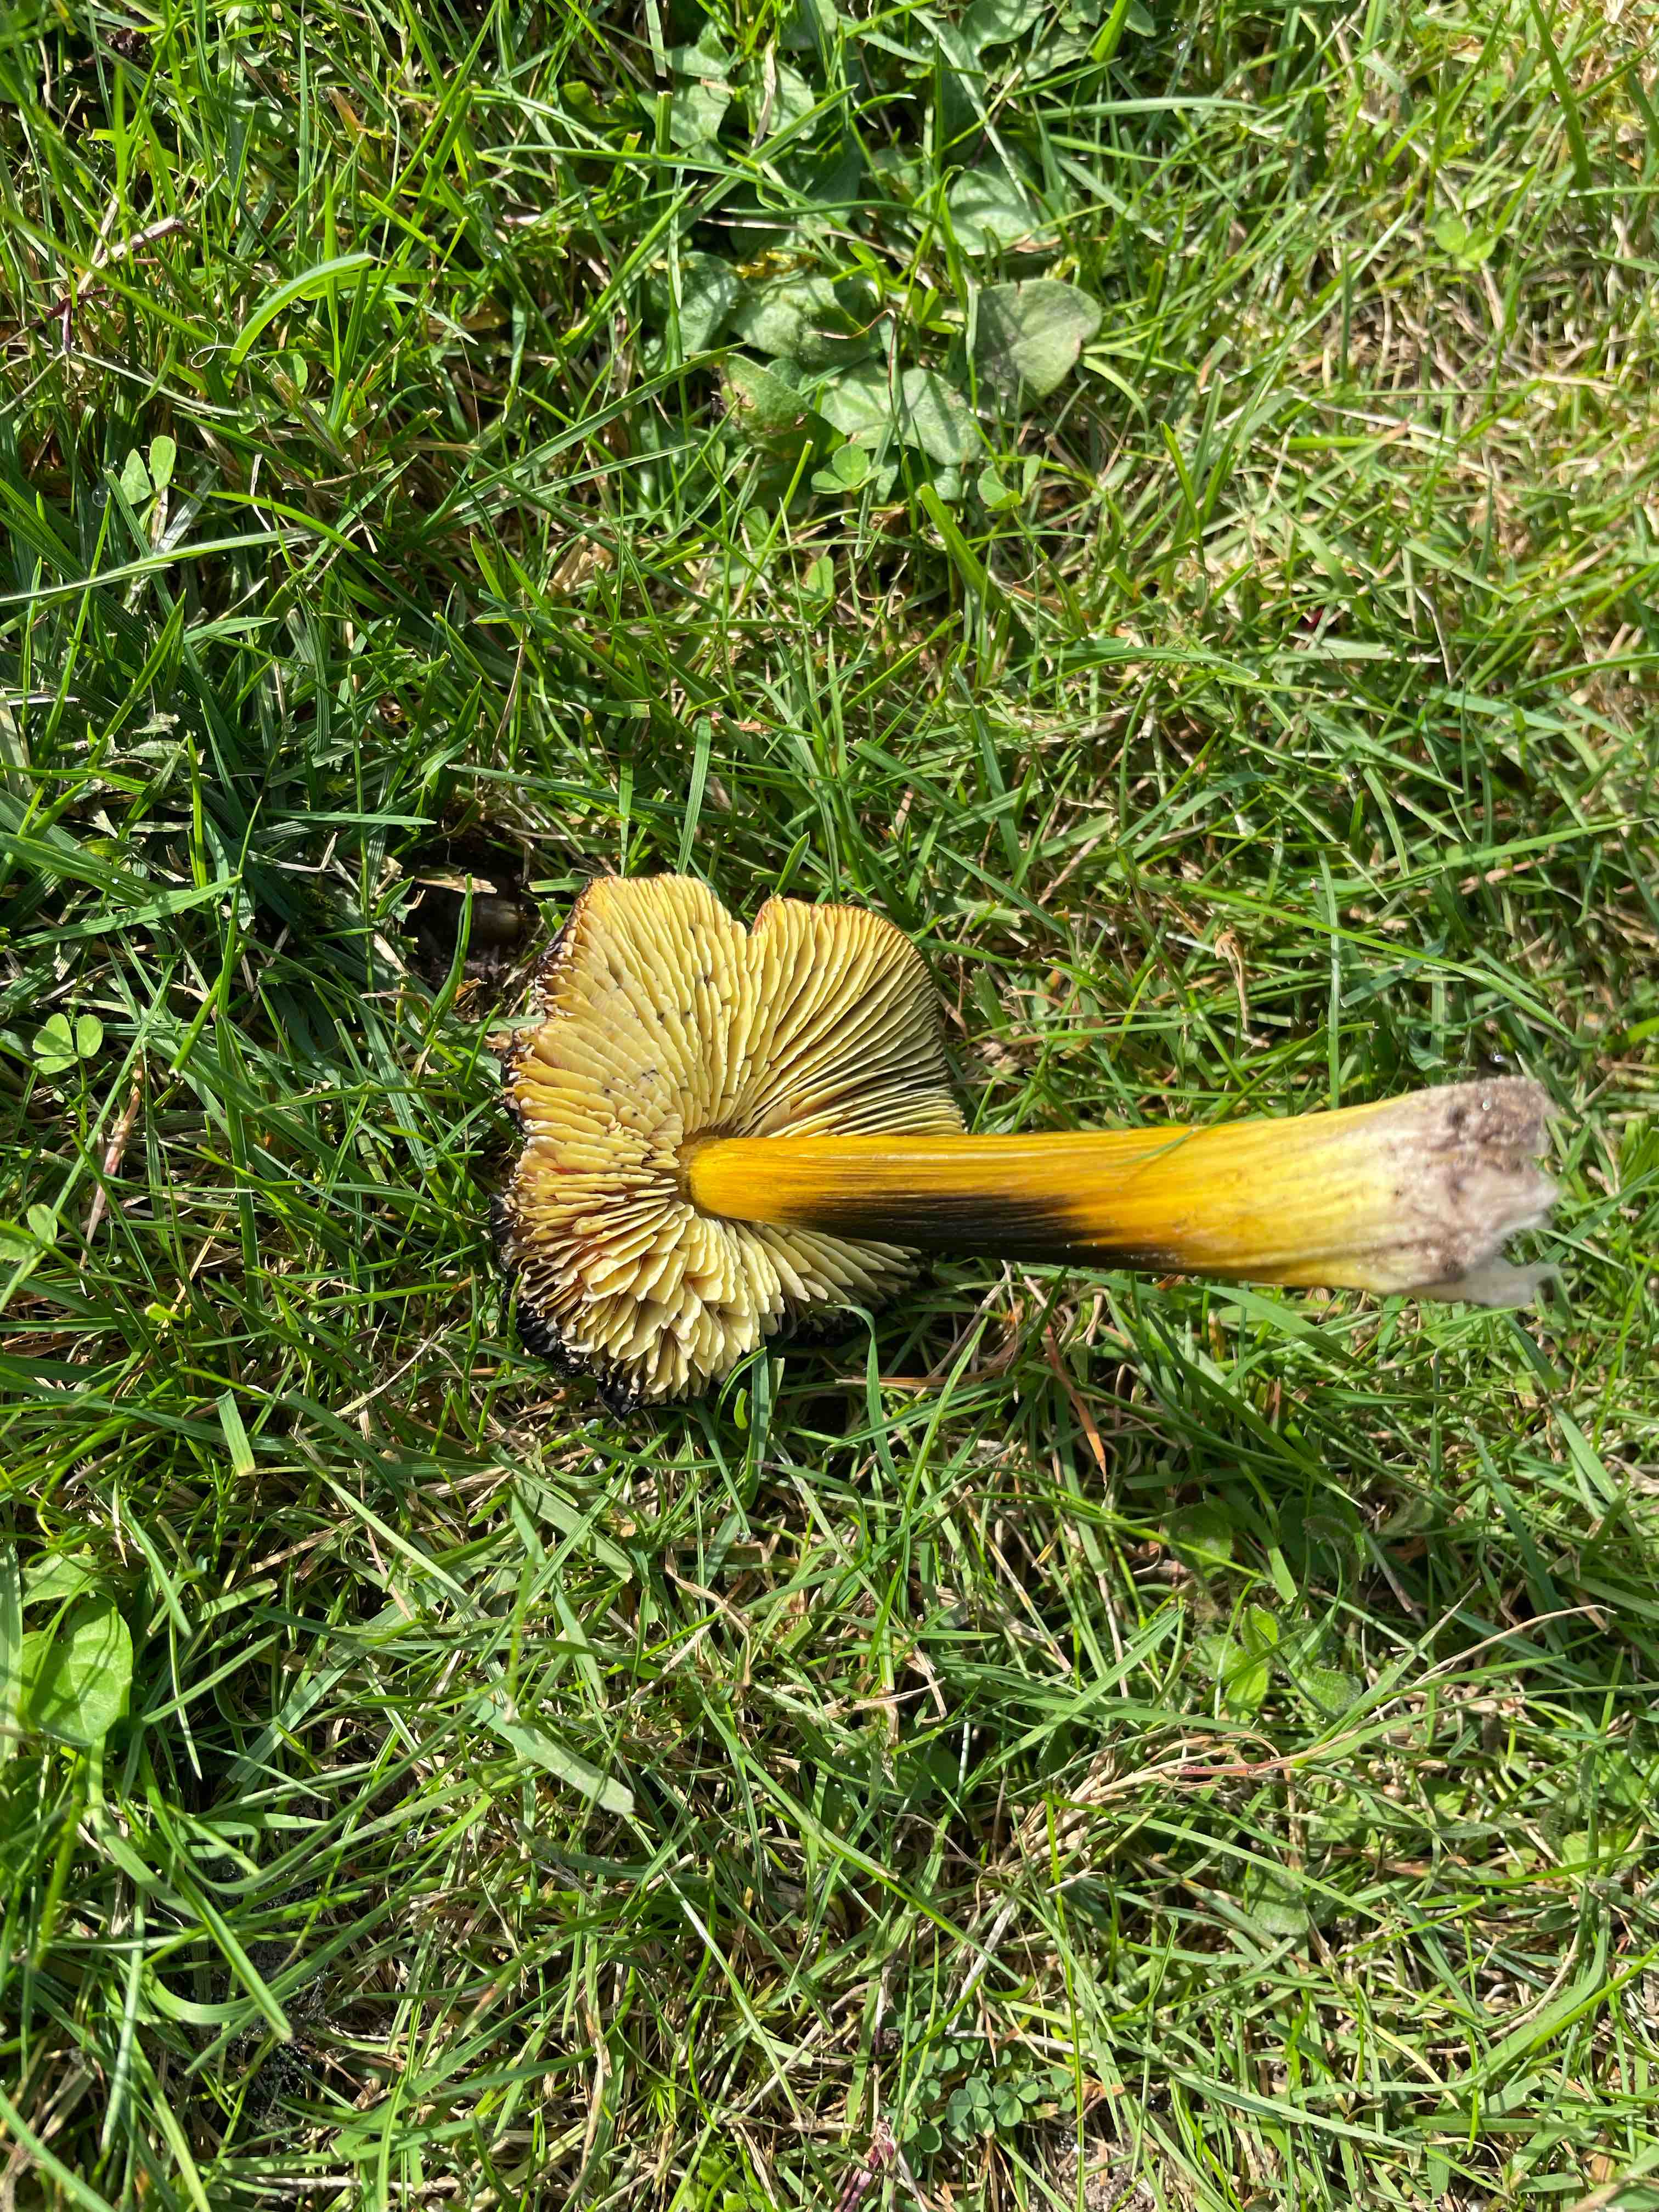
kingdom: Fungi
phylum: Basidiomycota
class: Agaricomycetes
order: Agaricales
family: Hygrophoraceae
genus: Hygrocybe
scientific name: Hygrocybe conica
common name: kegle-vokshat
